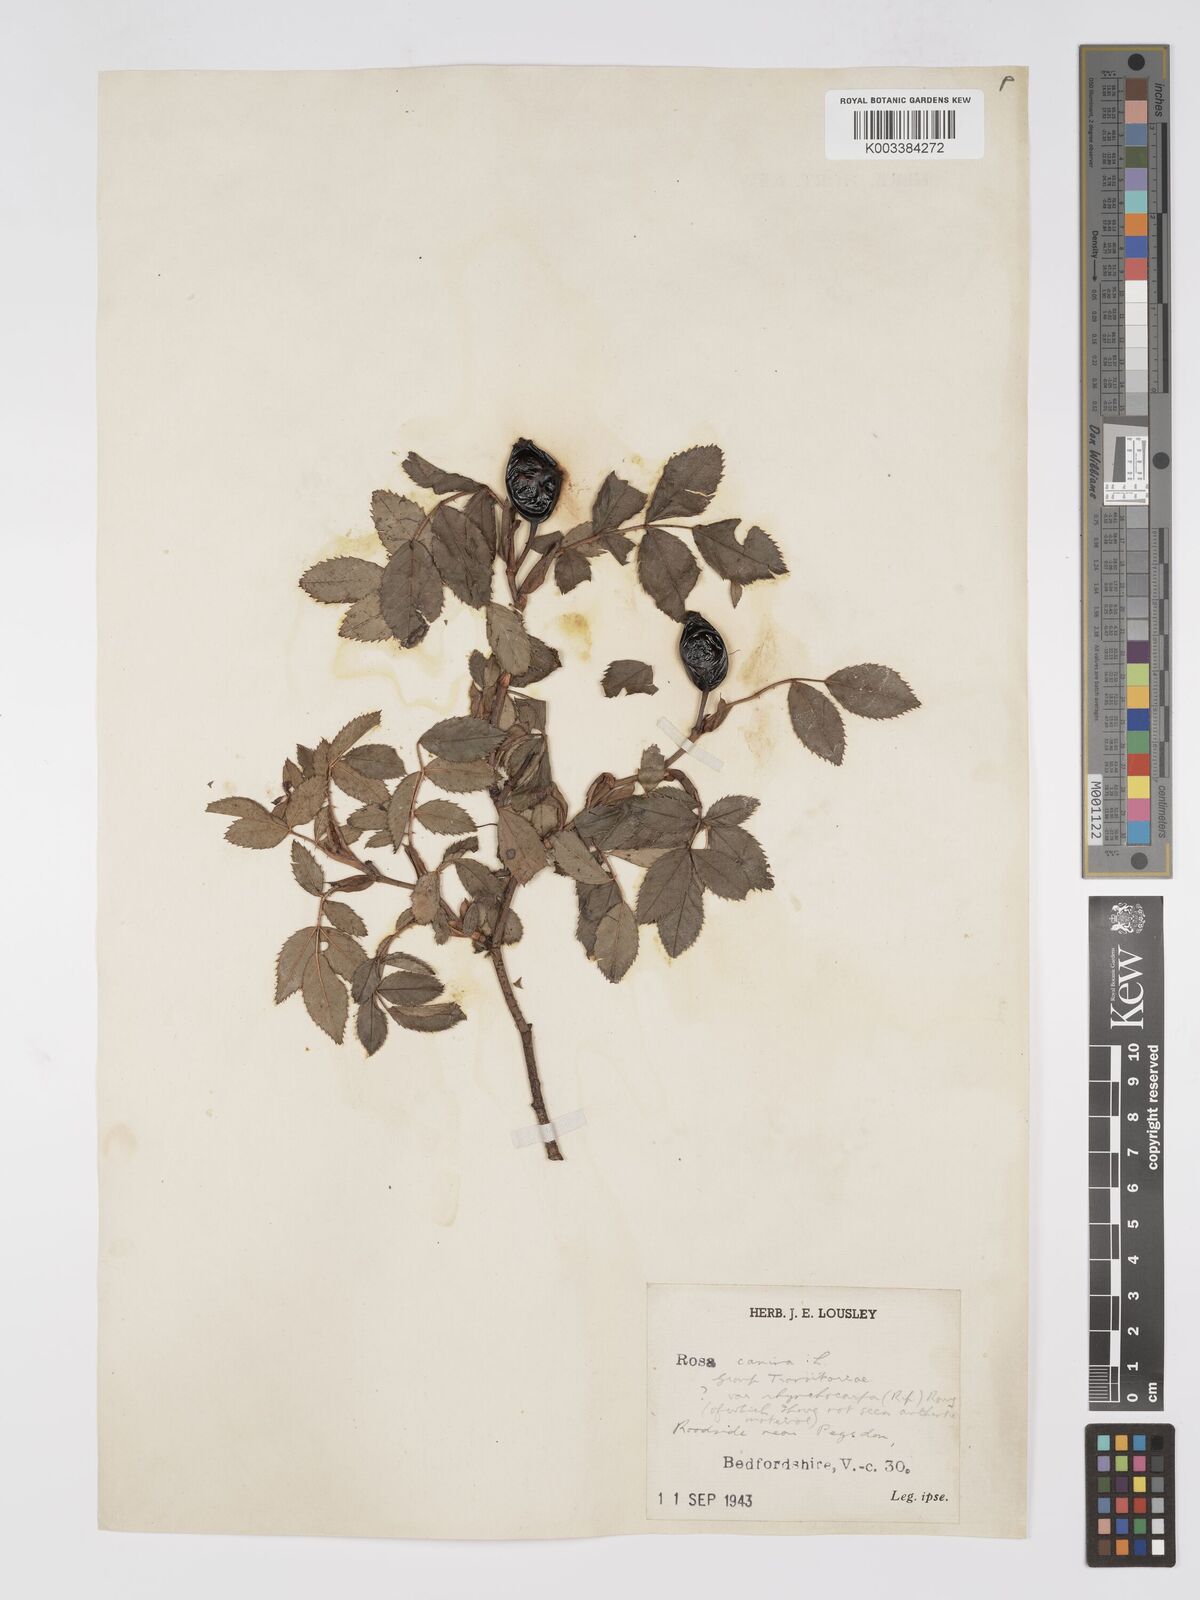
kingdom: Plantae
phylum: Tracheophyta
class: Magnoliopsida
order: Rosales
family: Rosaceae
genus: Rosa
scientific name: Rosa canina
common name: Dog rose
